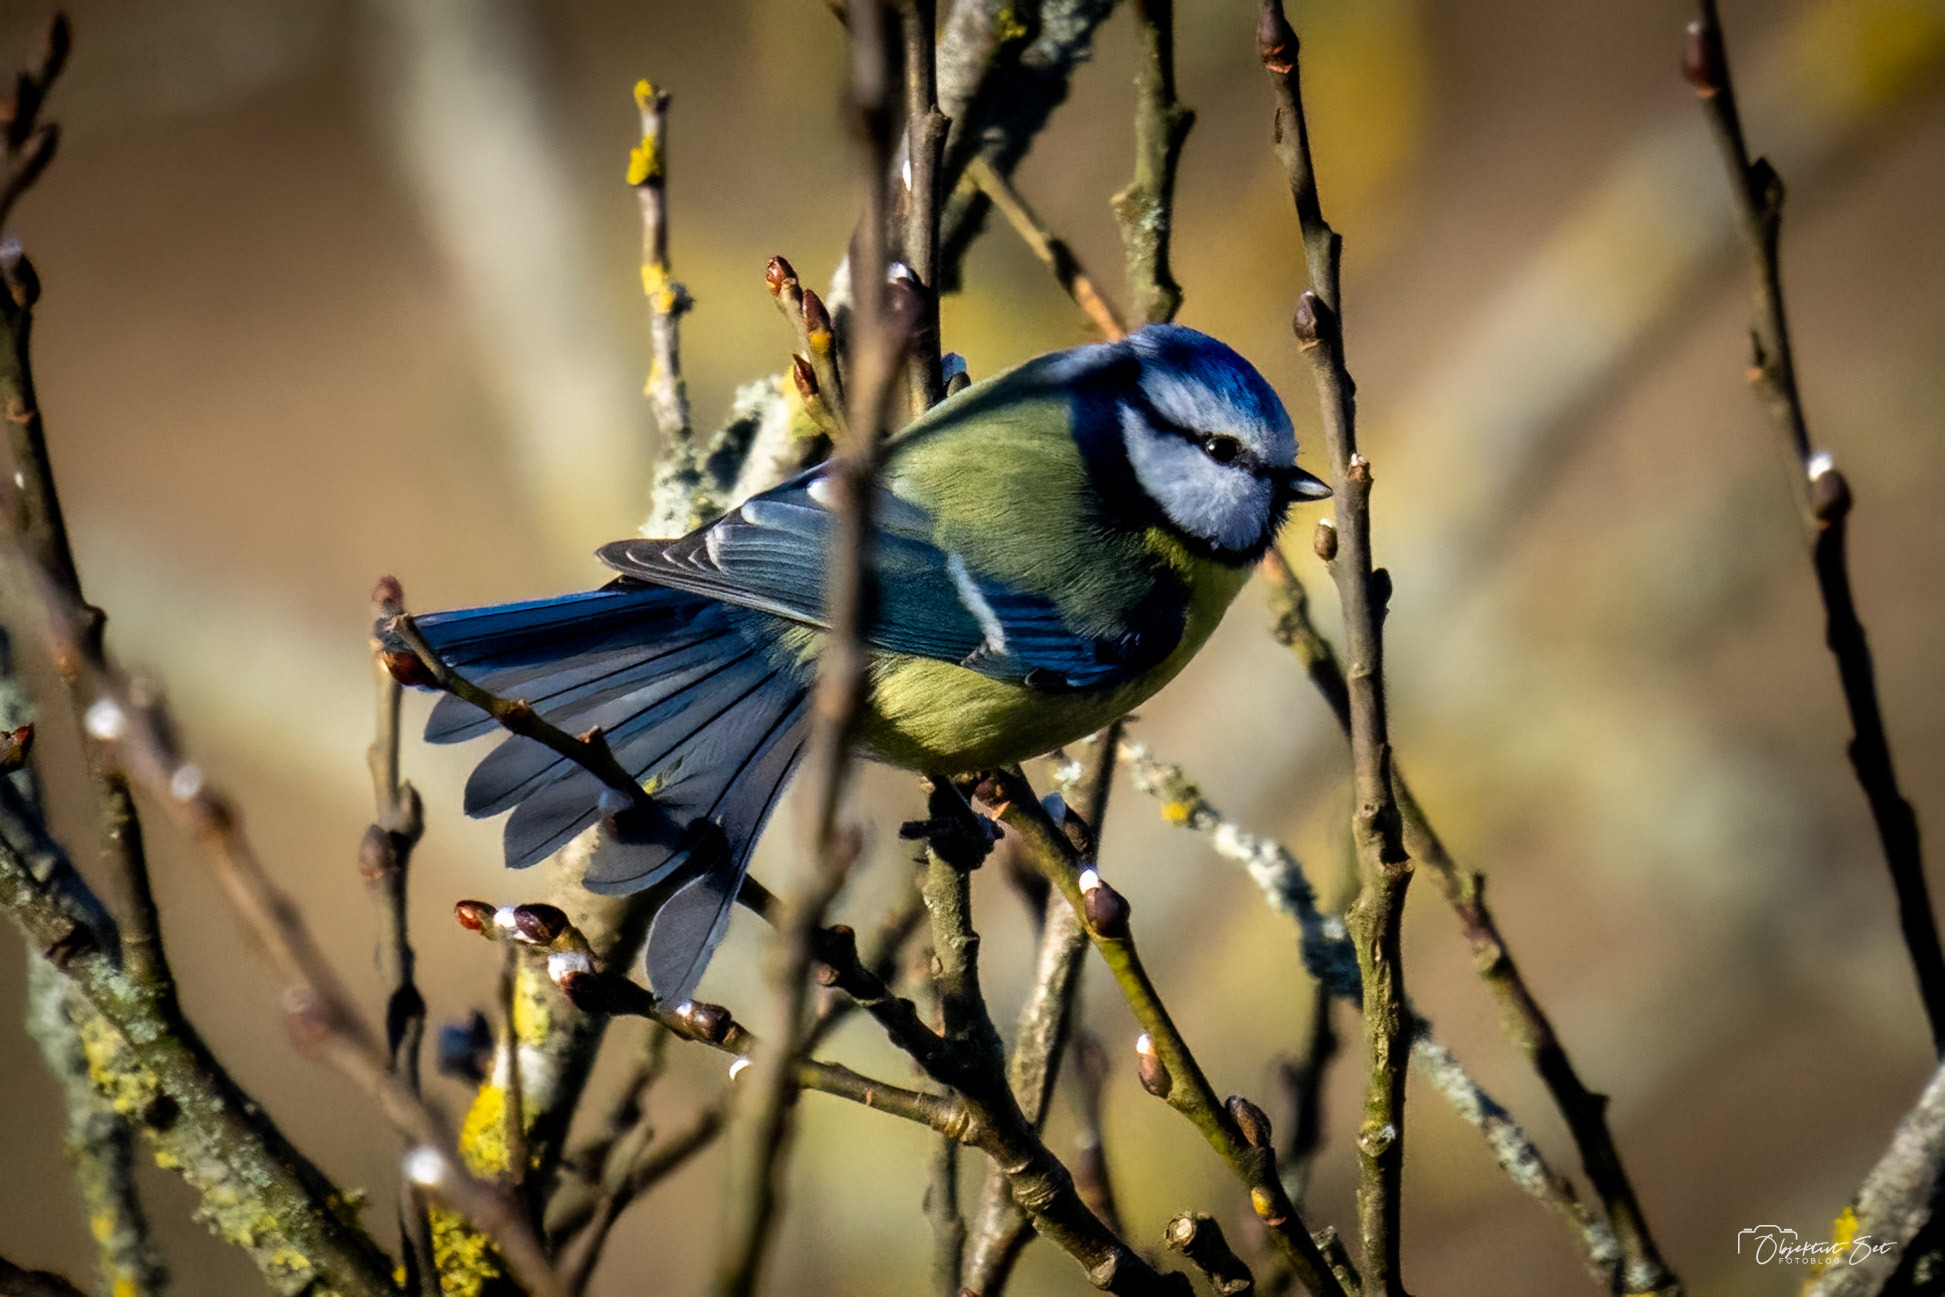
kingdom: Animalia
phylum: Chordata
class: Aves
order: Passeriformes
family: Paridae
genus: Cyanistes
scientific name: Cyanistes caeruleus
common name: Blåmejse
